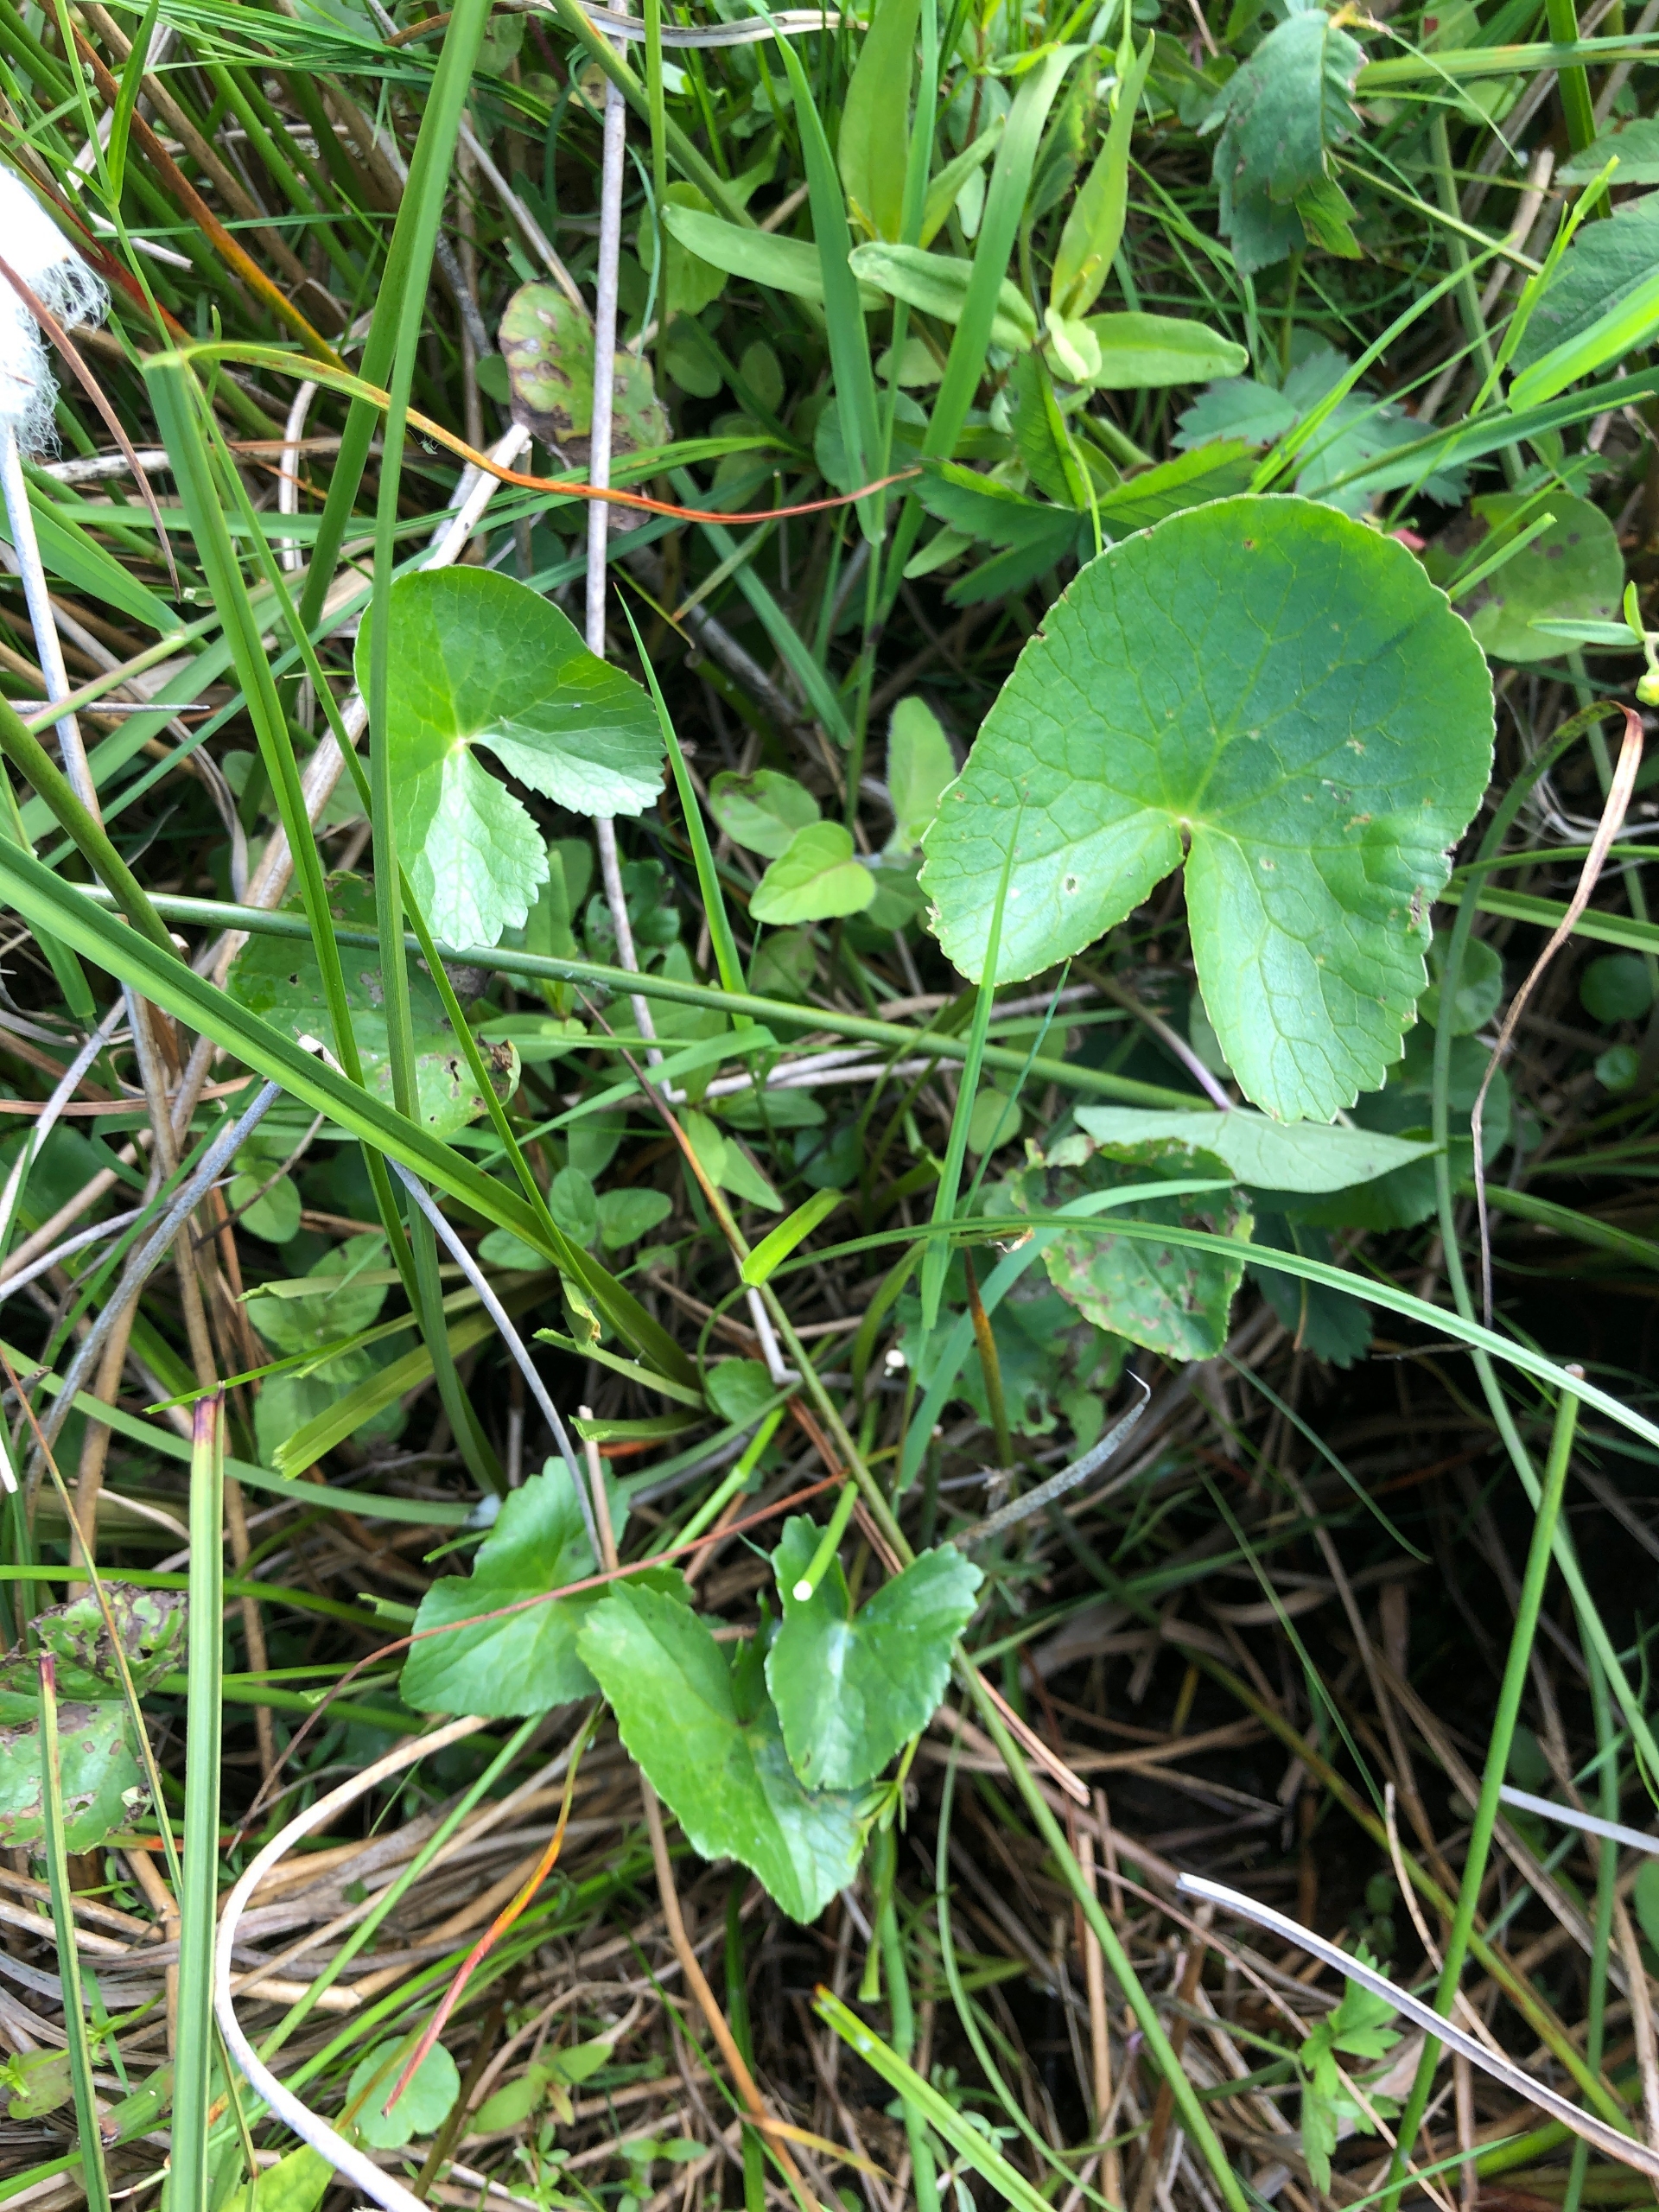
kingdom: Plantae
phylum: Tracheophyta
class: Magnoliopsida
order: Ranunculales
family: Ranunculaceae
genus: Caltha
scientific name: Caltha palustris
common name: Eng-kabbeleje
